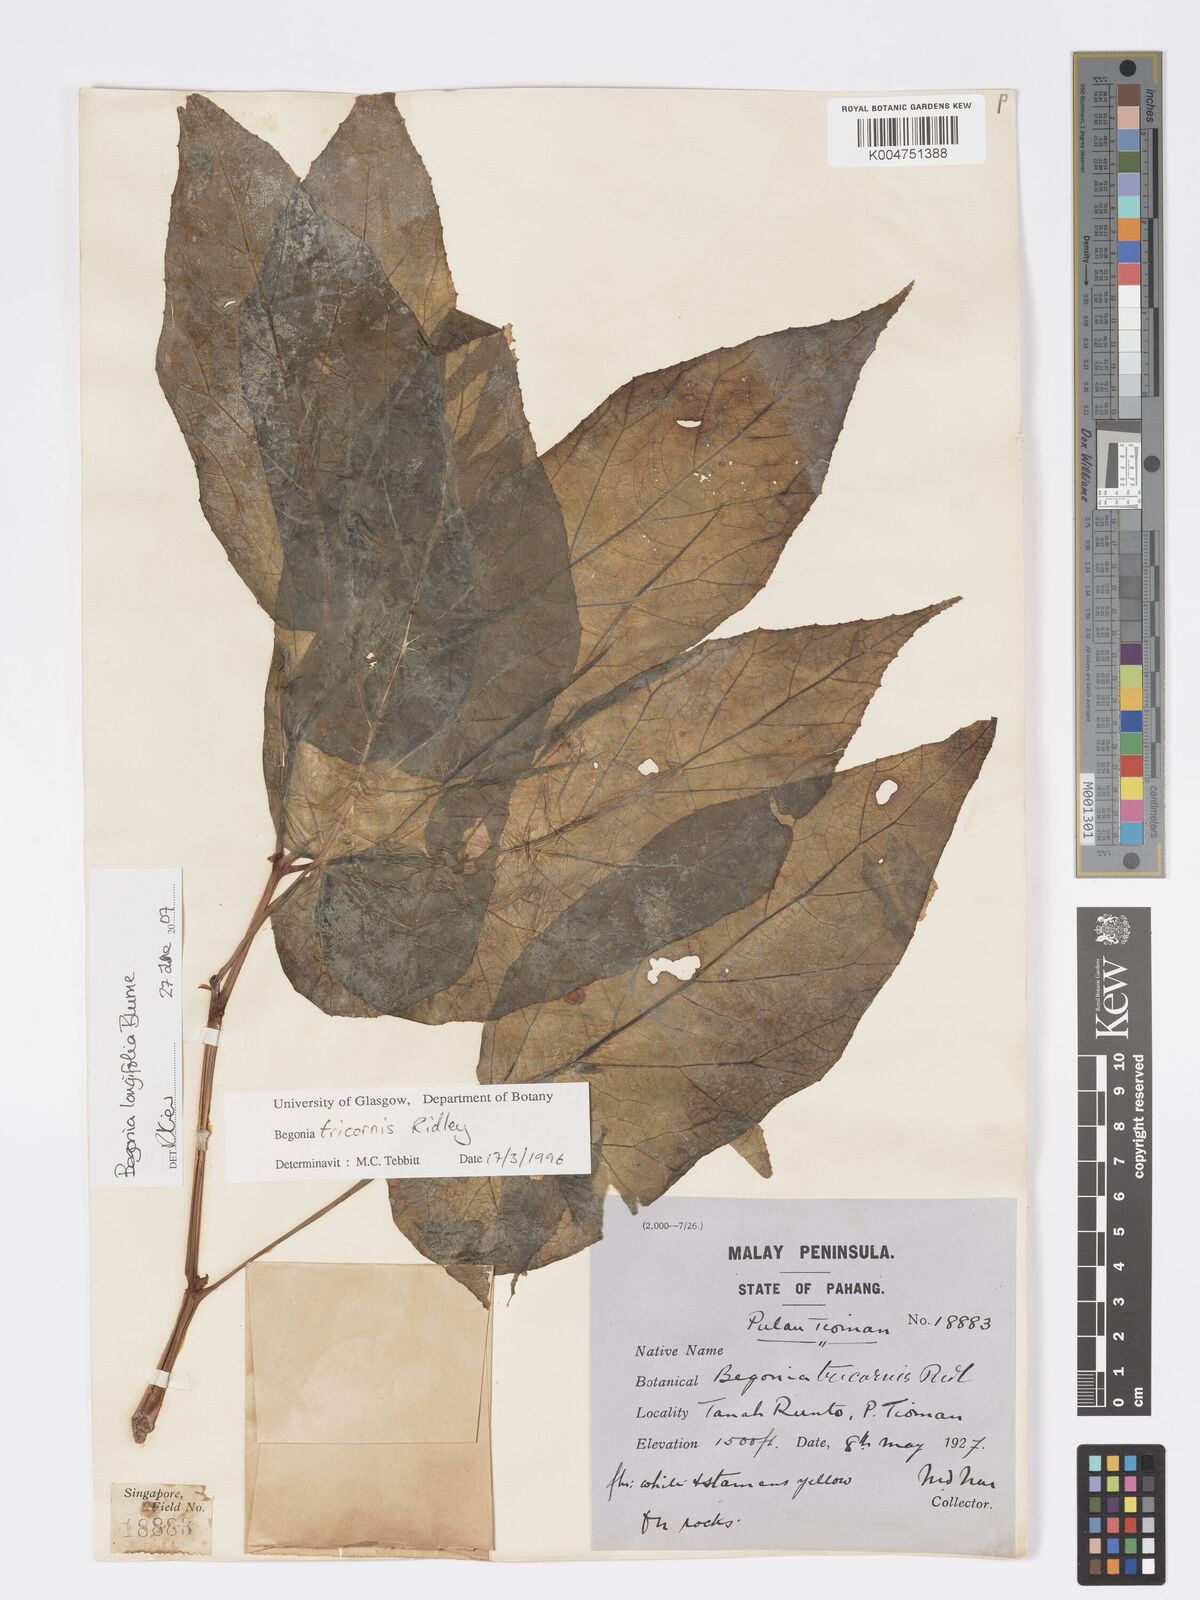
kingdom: Plantae
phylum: Tracheophyta
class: Magnoliopsida
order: Cucurbitales
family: Begoniaceae
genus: Begonia
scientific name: Begonia longifolia
